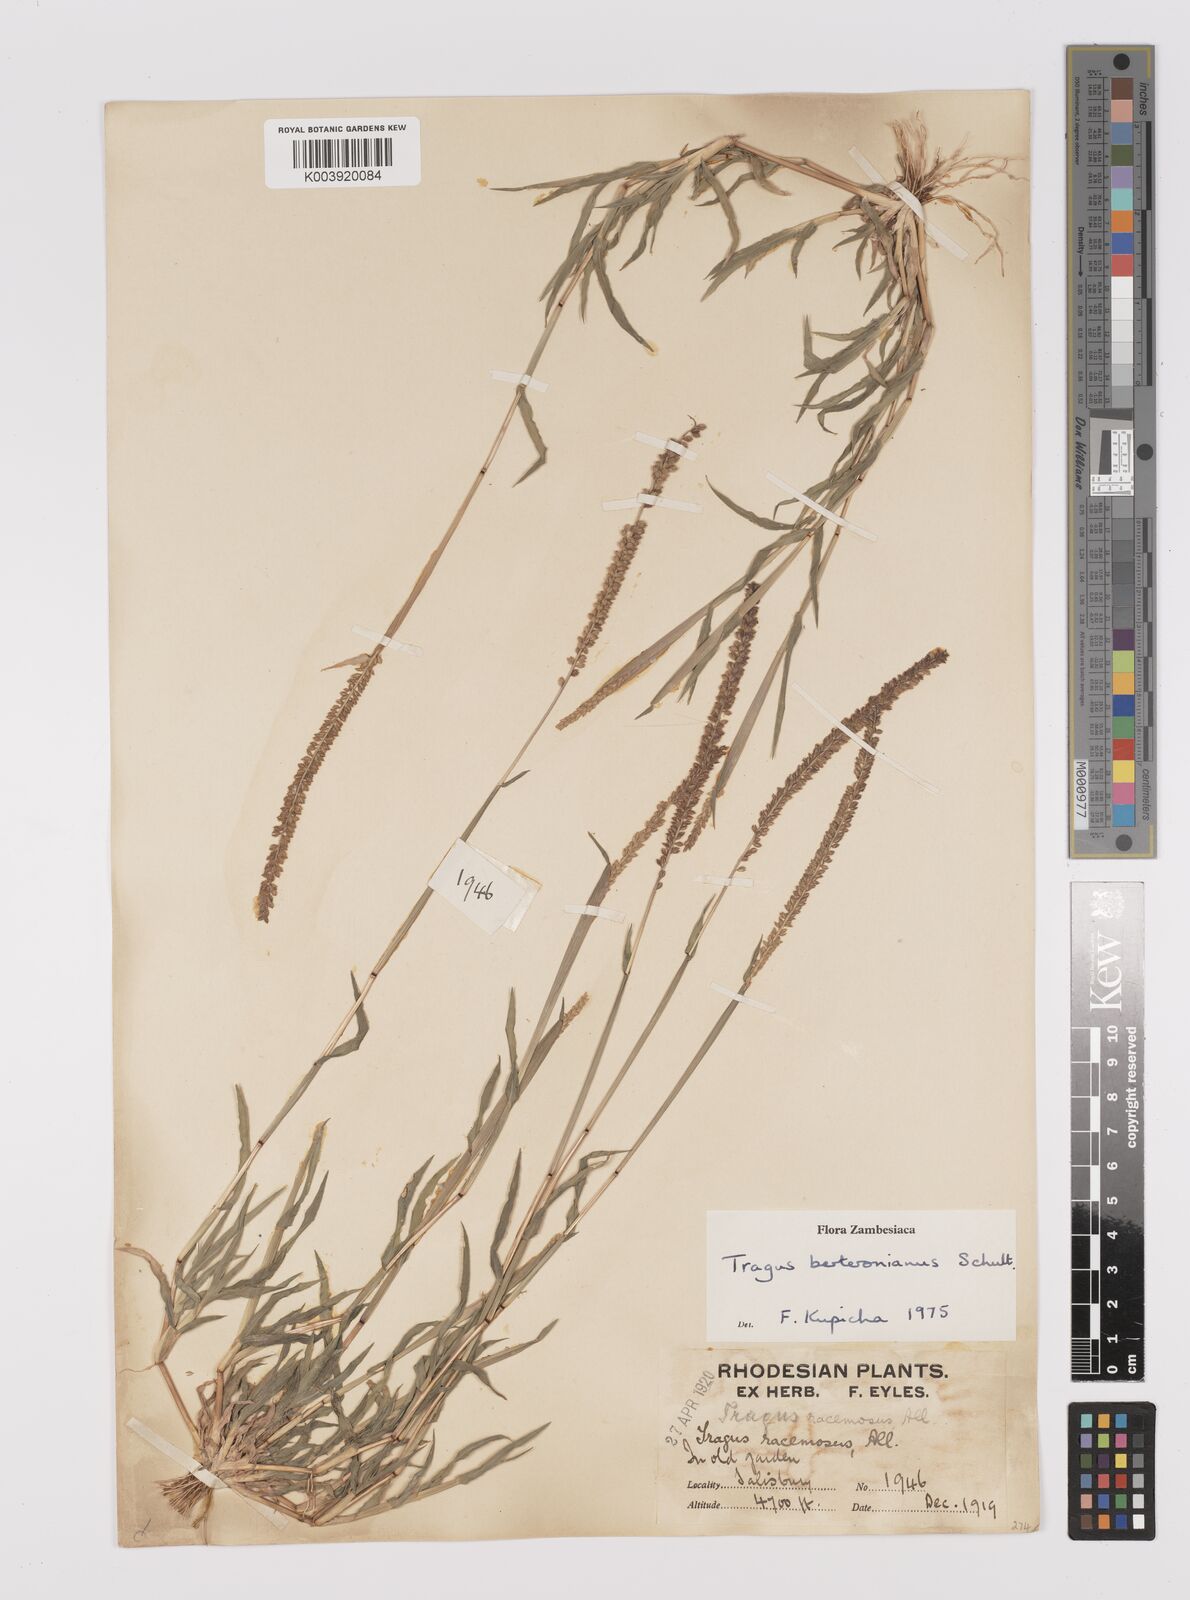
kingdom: Plantae
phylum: Tracheophyta
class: Liliopsida
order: Poales
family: Poaceae
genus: Tragus
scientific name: Tragus berteronianus
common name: African bur-grass
